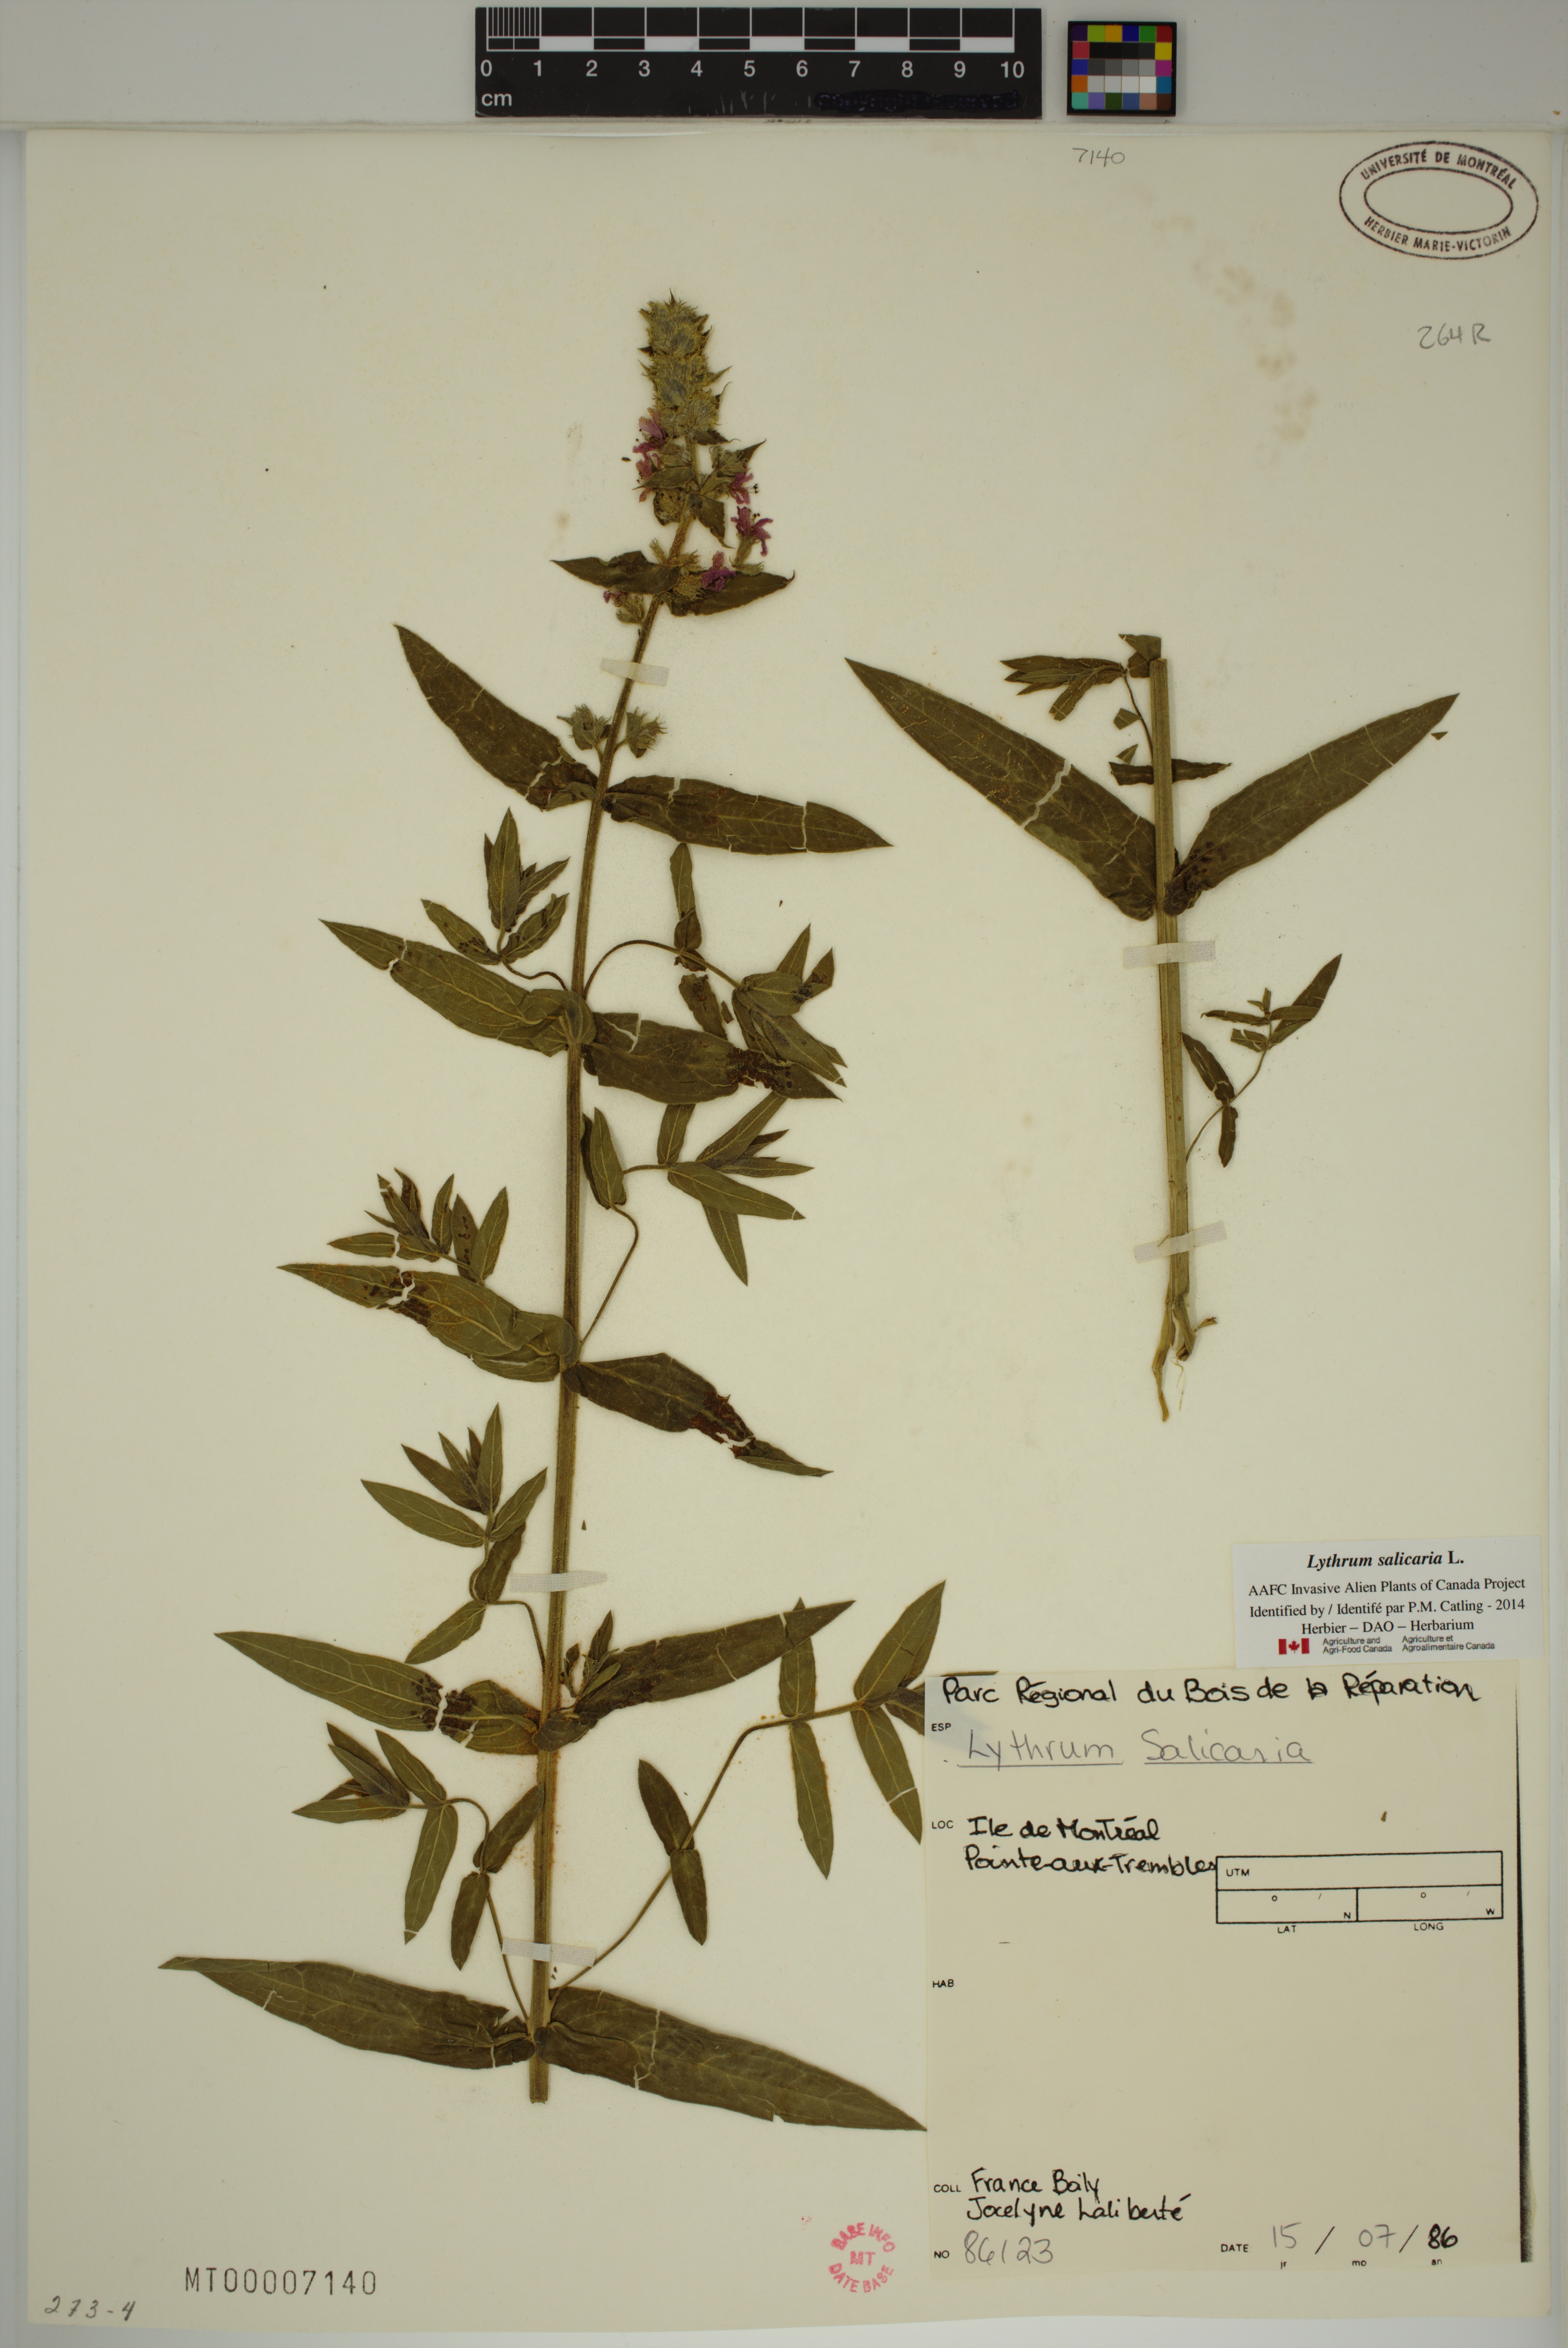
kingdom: Plantae
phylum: Tracheophyta
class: Magnoliopsida
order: Myrtales
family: Lythraceae
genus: Lythrum
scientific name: Lythrum salicaria
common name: Purple loosestrife
